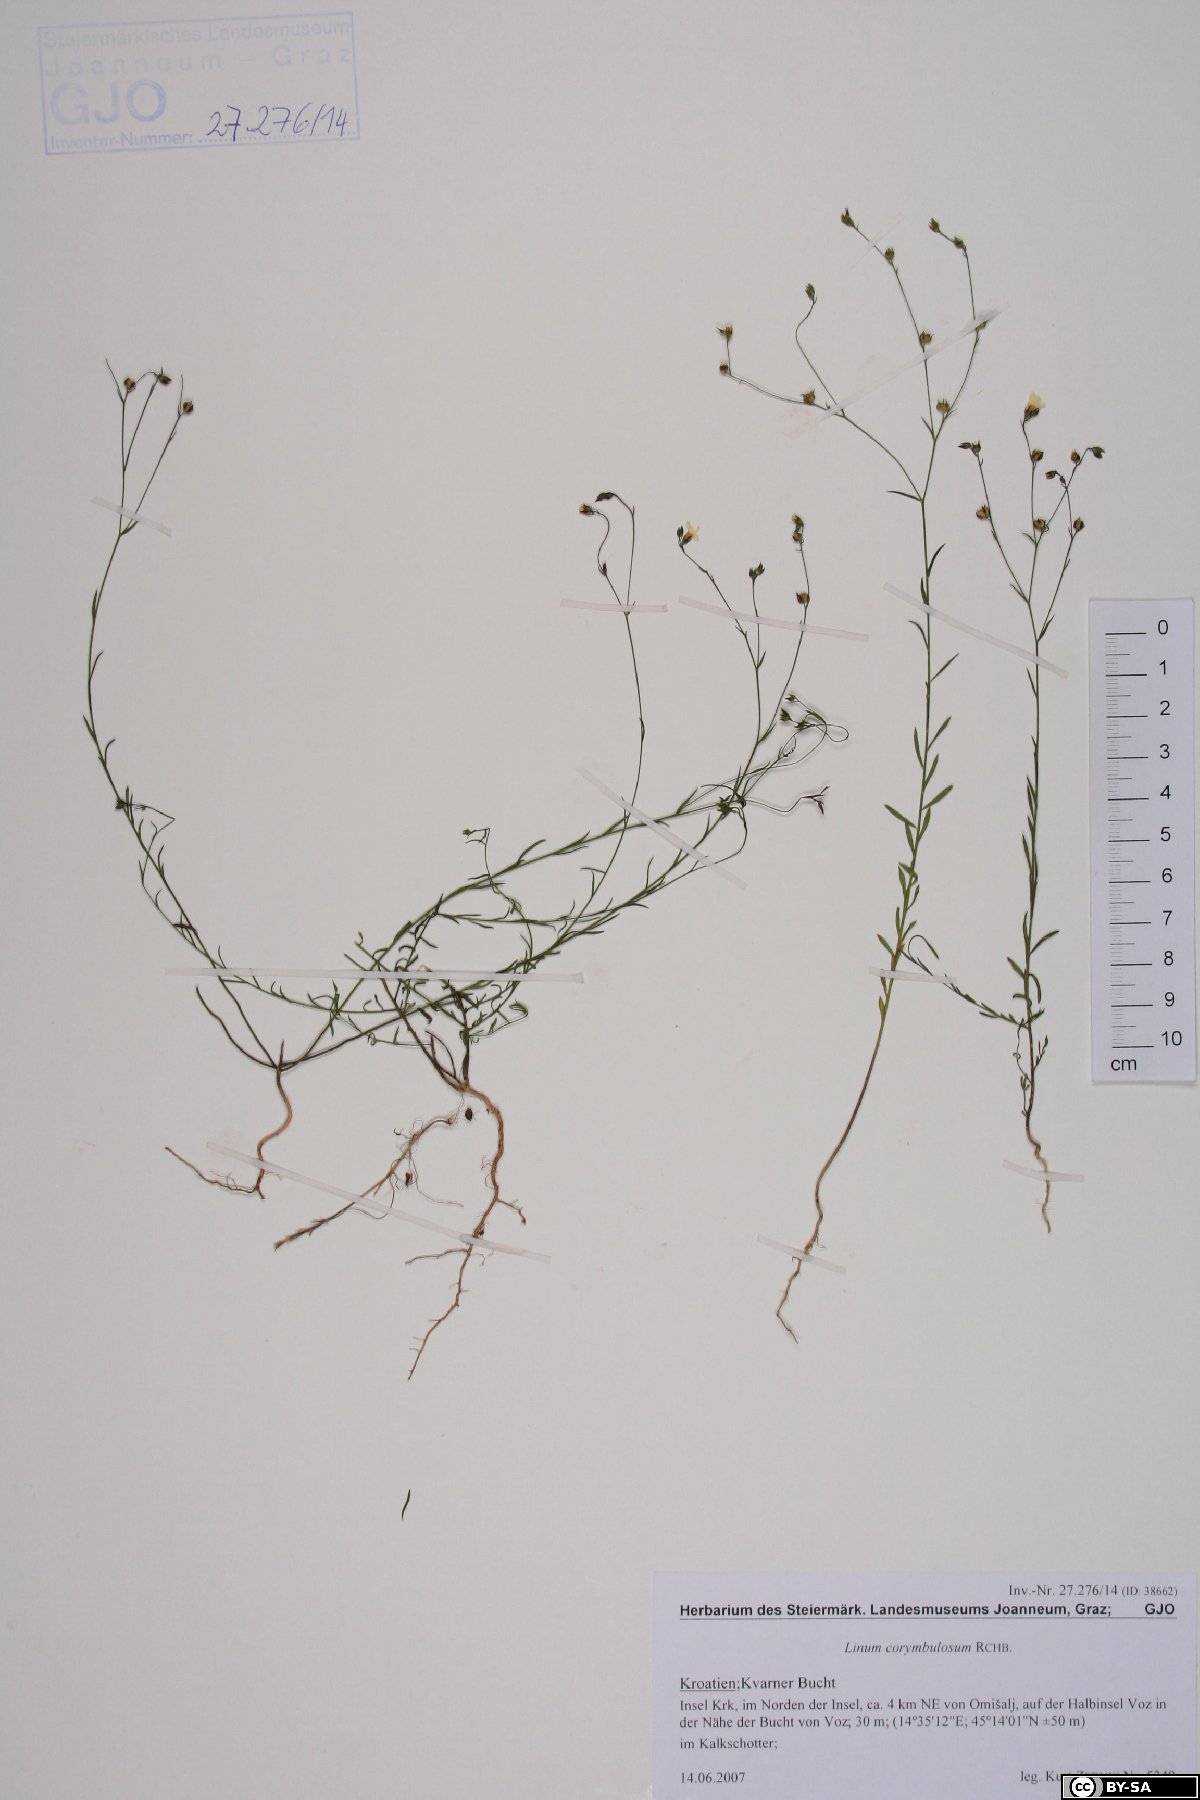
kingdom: Plantae
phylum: Tracheophyta
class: Magnoliopsida
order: Malpighiales
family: Linaceae
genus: Linum
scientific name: Linum trigynum
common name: French flax
